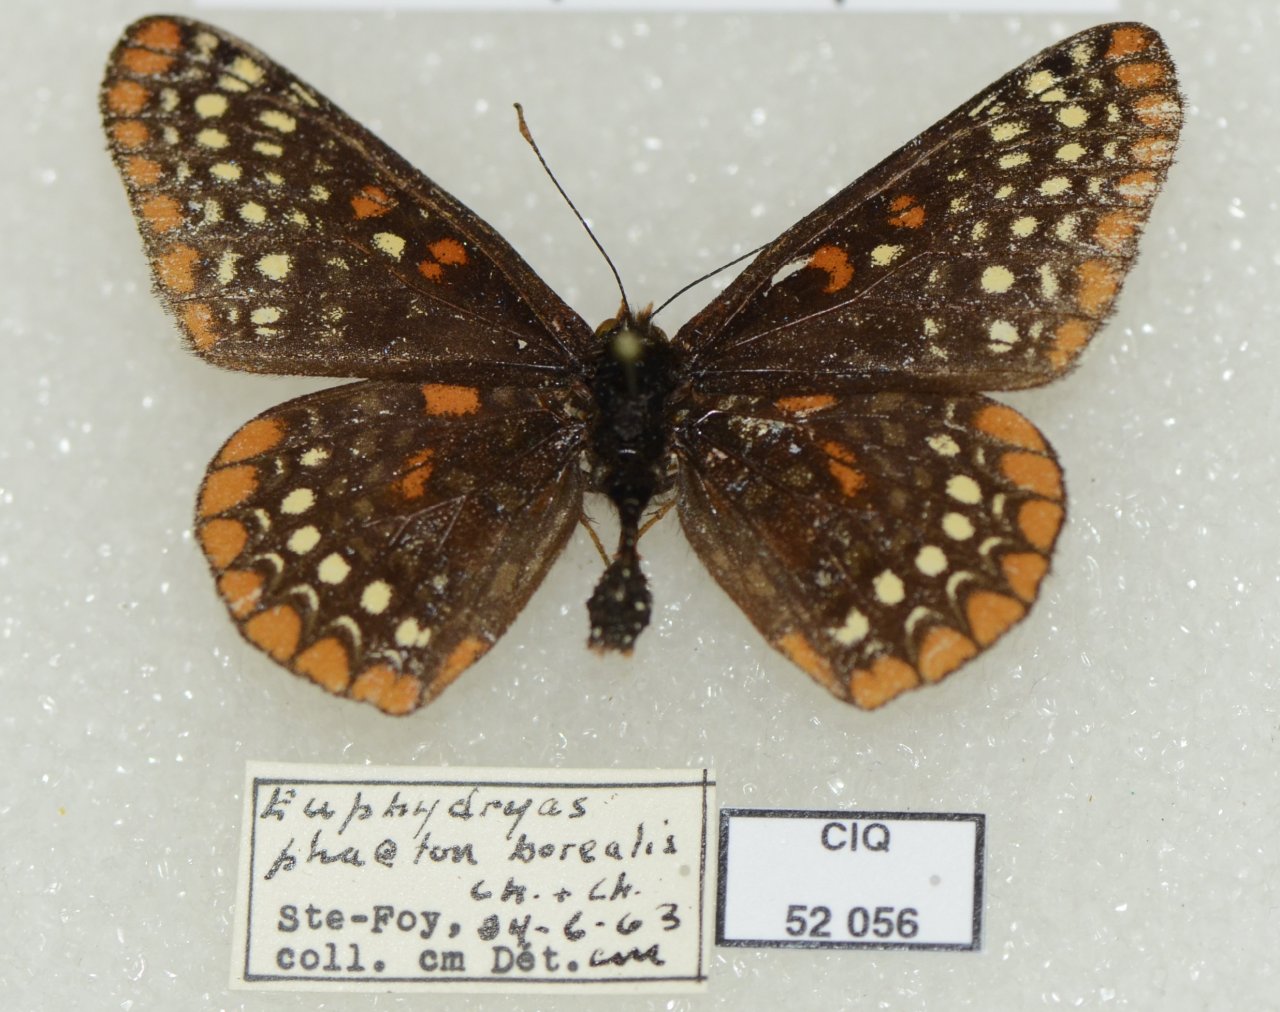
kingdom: Animalia
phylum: Arthropoda
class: Insecta
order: Lepidoptera
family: Nymphalidae
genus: Euphydryas
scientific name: Euphydryas phaeton
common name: Baltimore Checkerspot
